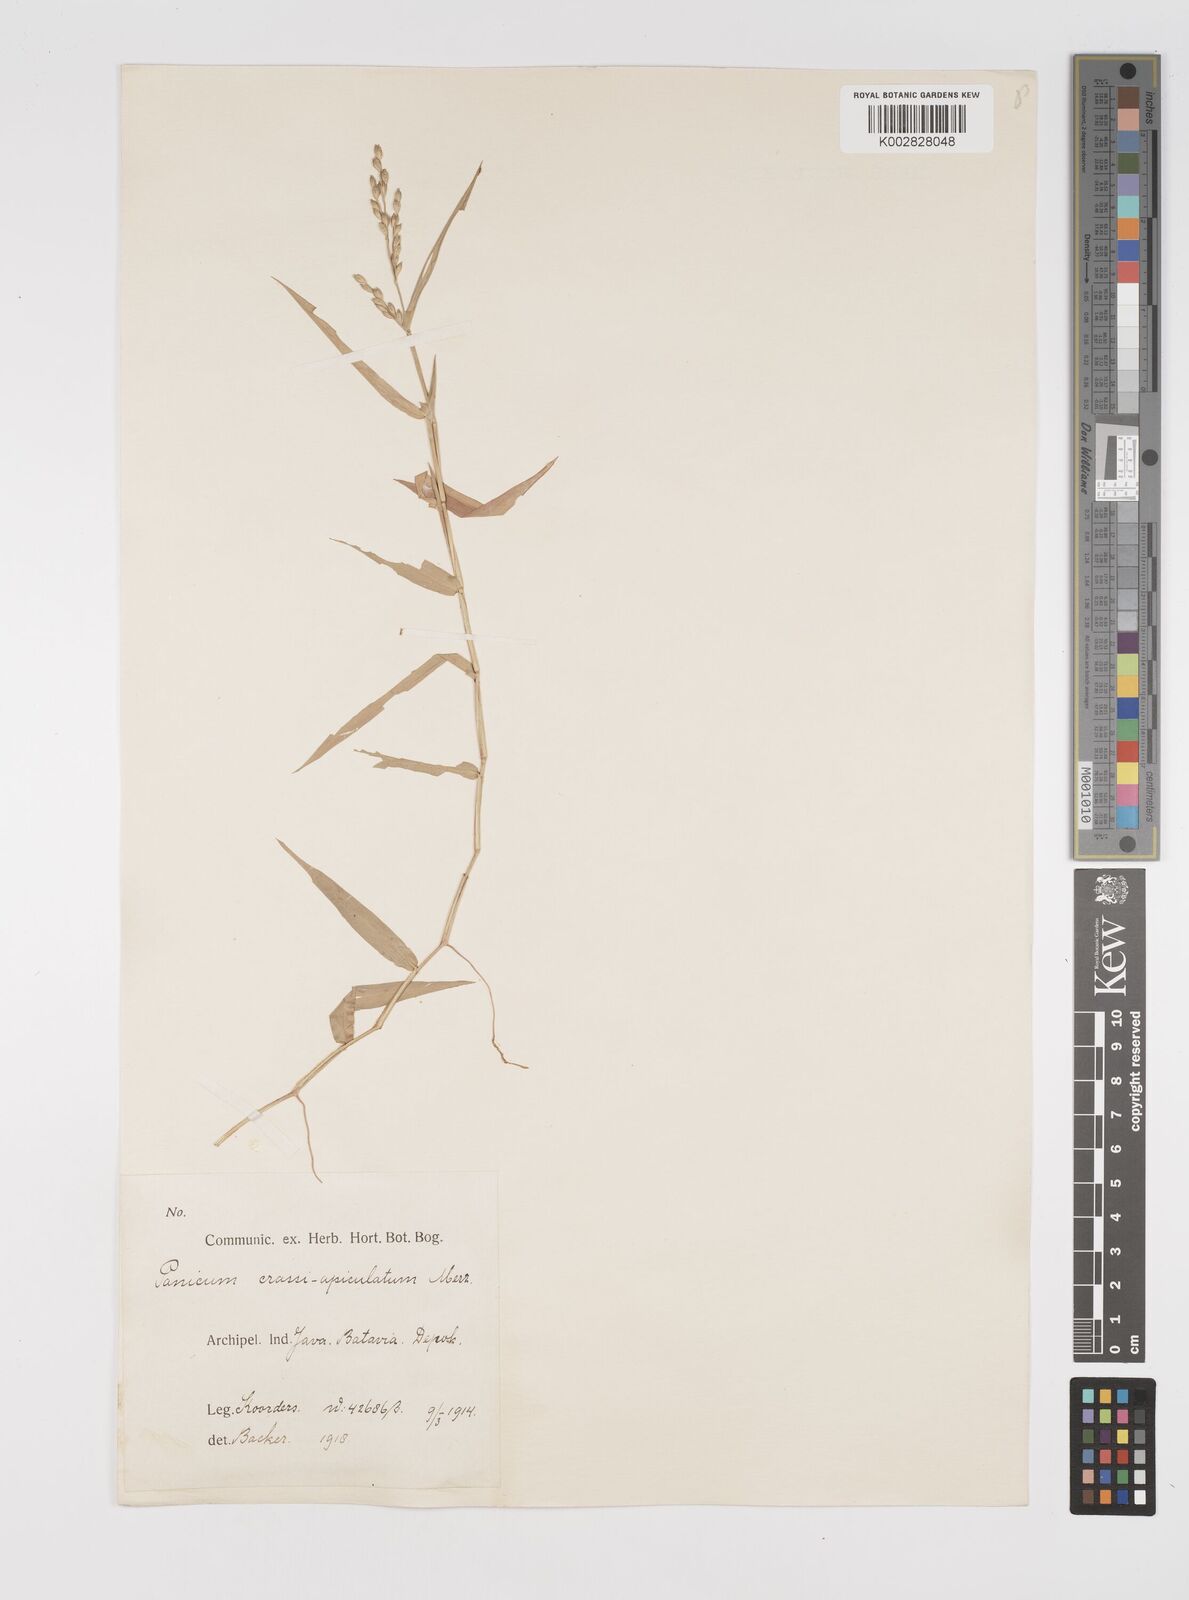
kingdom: Plantae
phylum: Tracheophyta
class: Liliopsida
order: Poales
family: Poaceae
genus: Acroceras
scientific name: Acroceras munroanum
